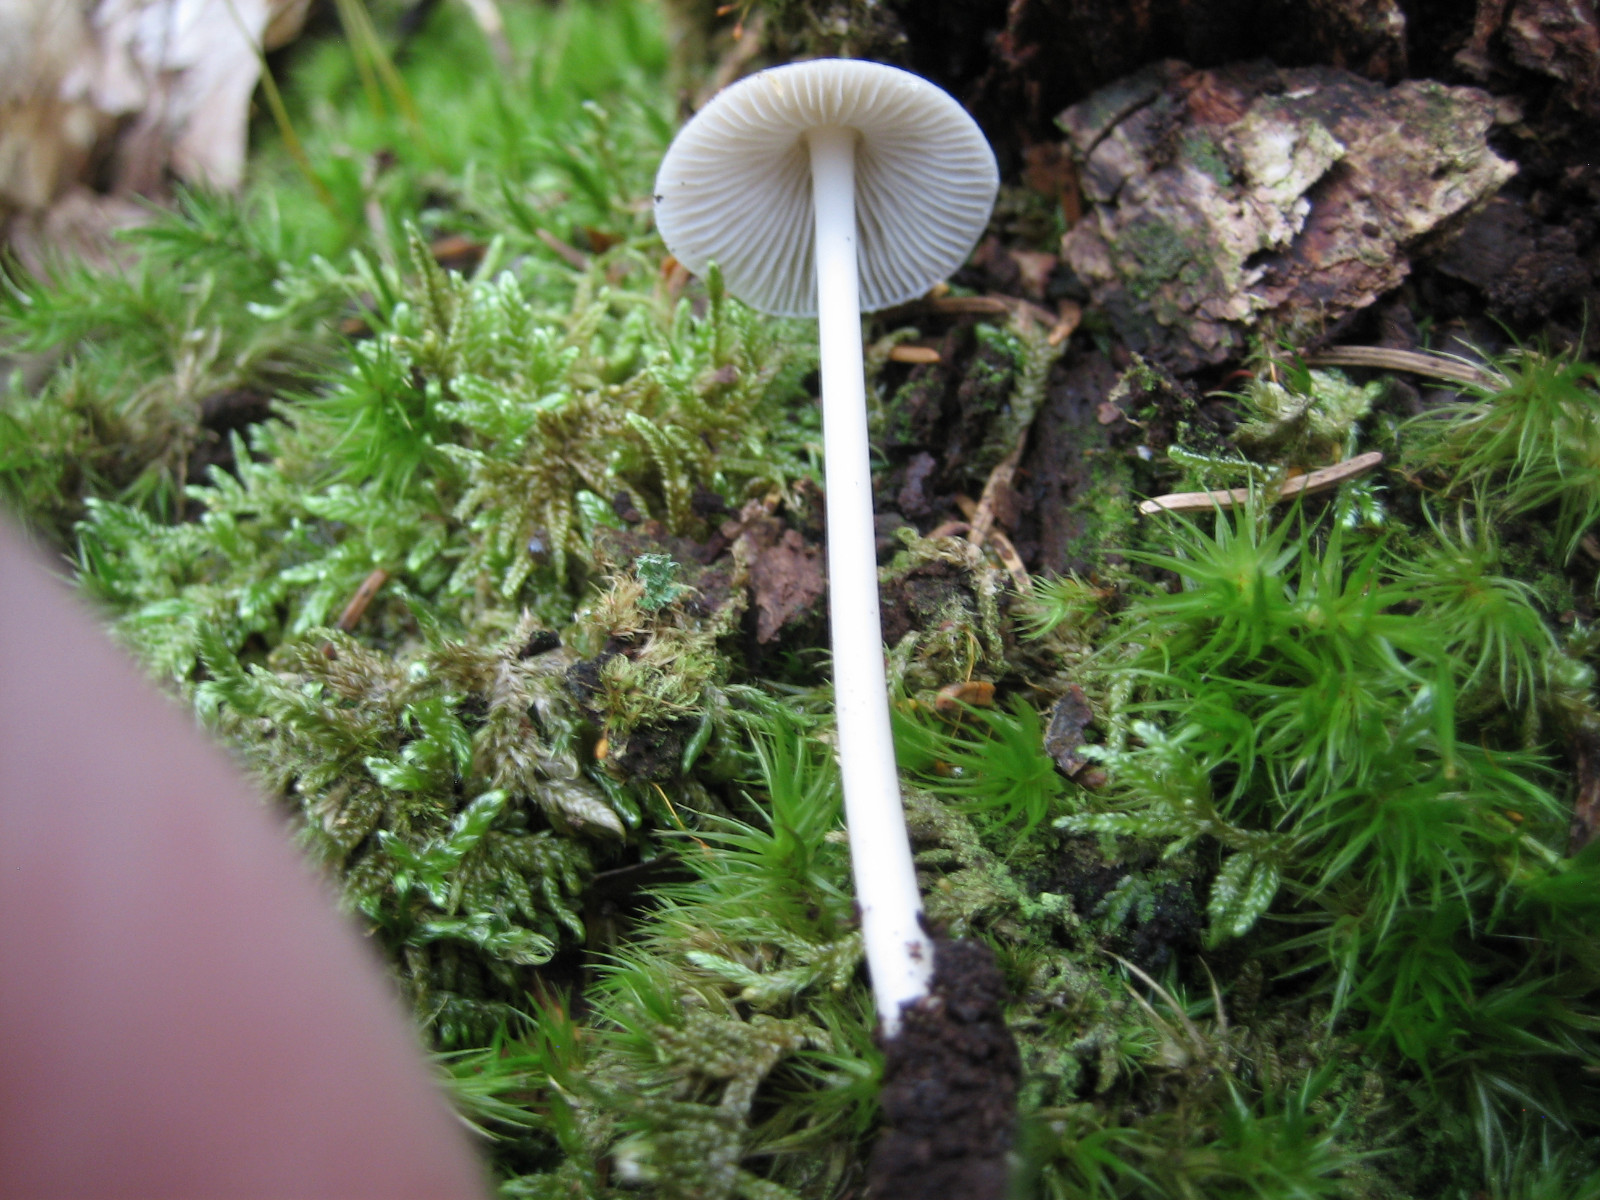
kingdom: Fungi
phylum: Basidiomycota
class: Agaricomycetes
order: Agaricales
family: Mycenaceae
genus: Mycena
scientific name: Mycena galericulata
